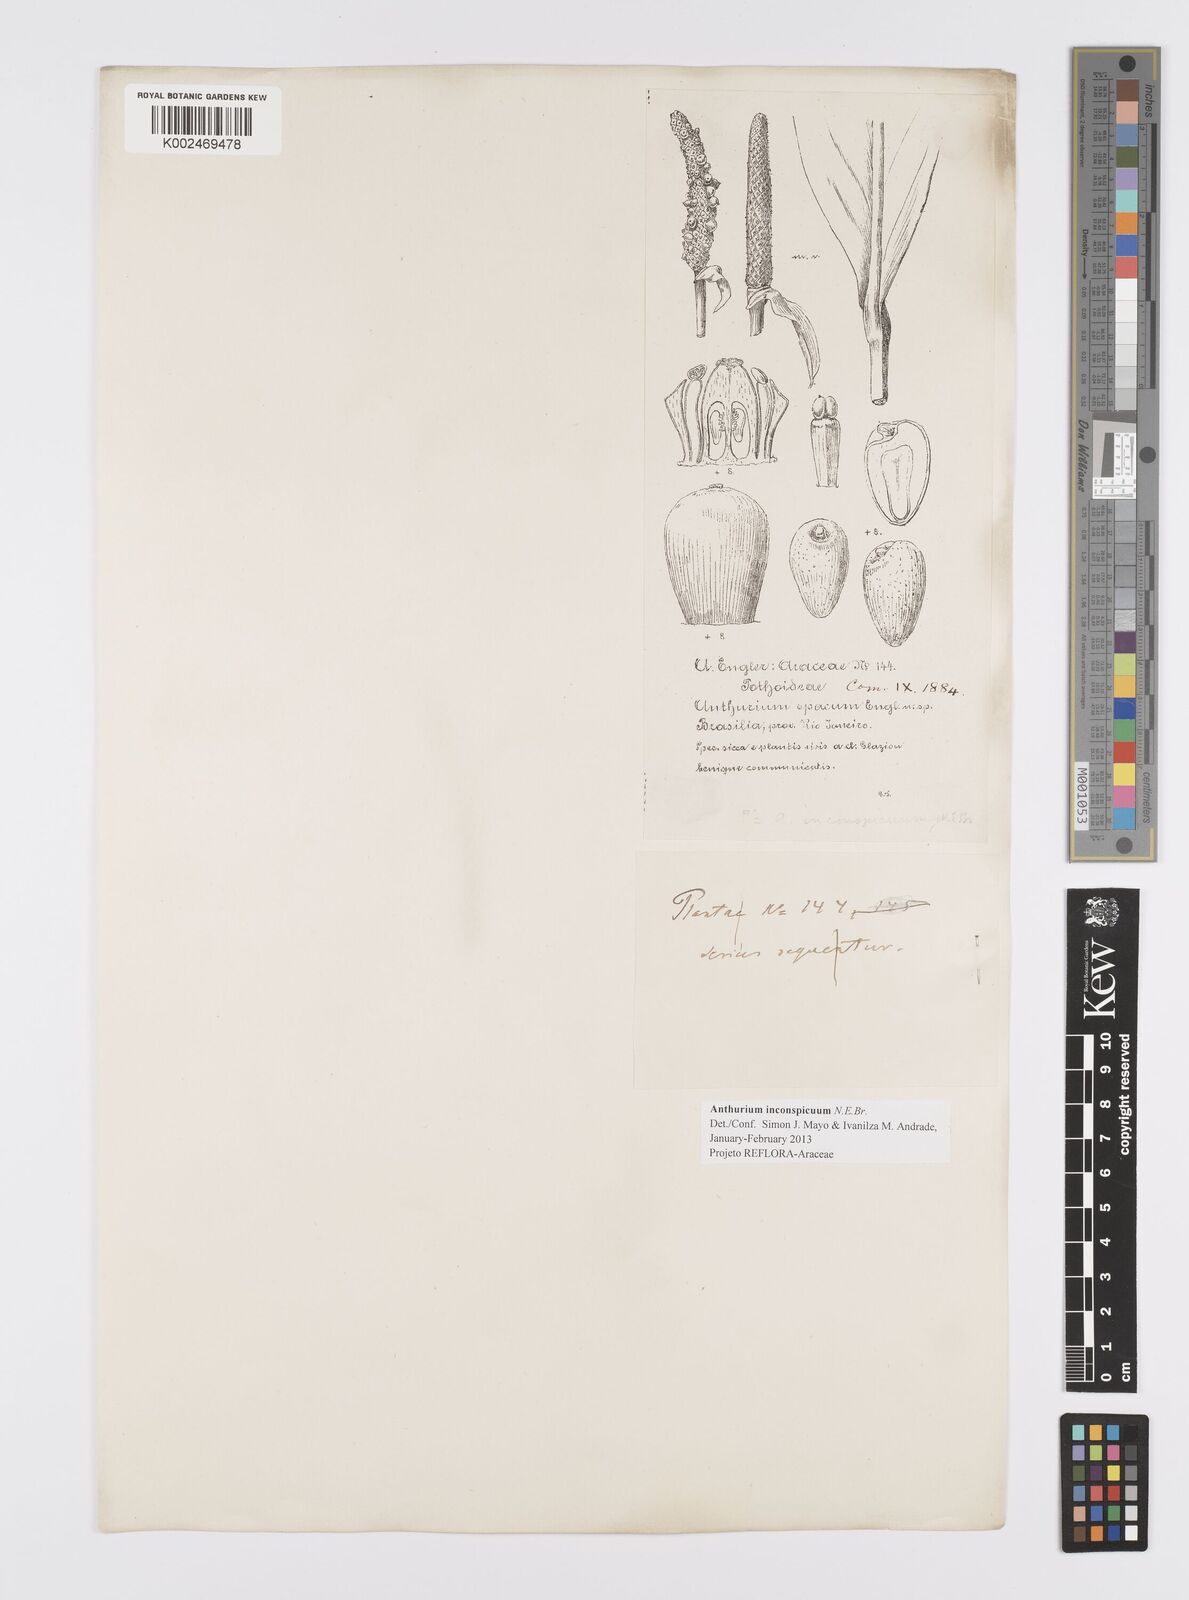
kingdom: Plantae
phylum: Tracheophyta
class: Liliopsida
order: Alismatales
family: Araceae
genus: Anthurium
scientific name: Anthurium inconspicuum
